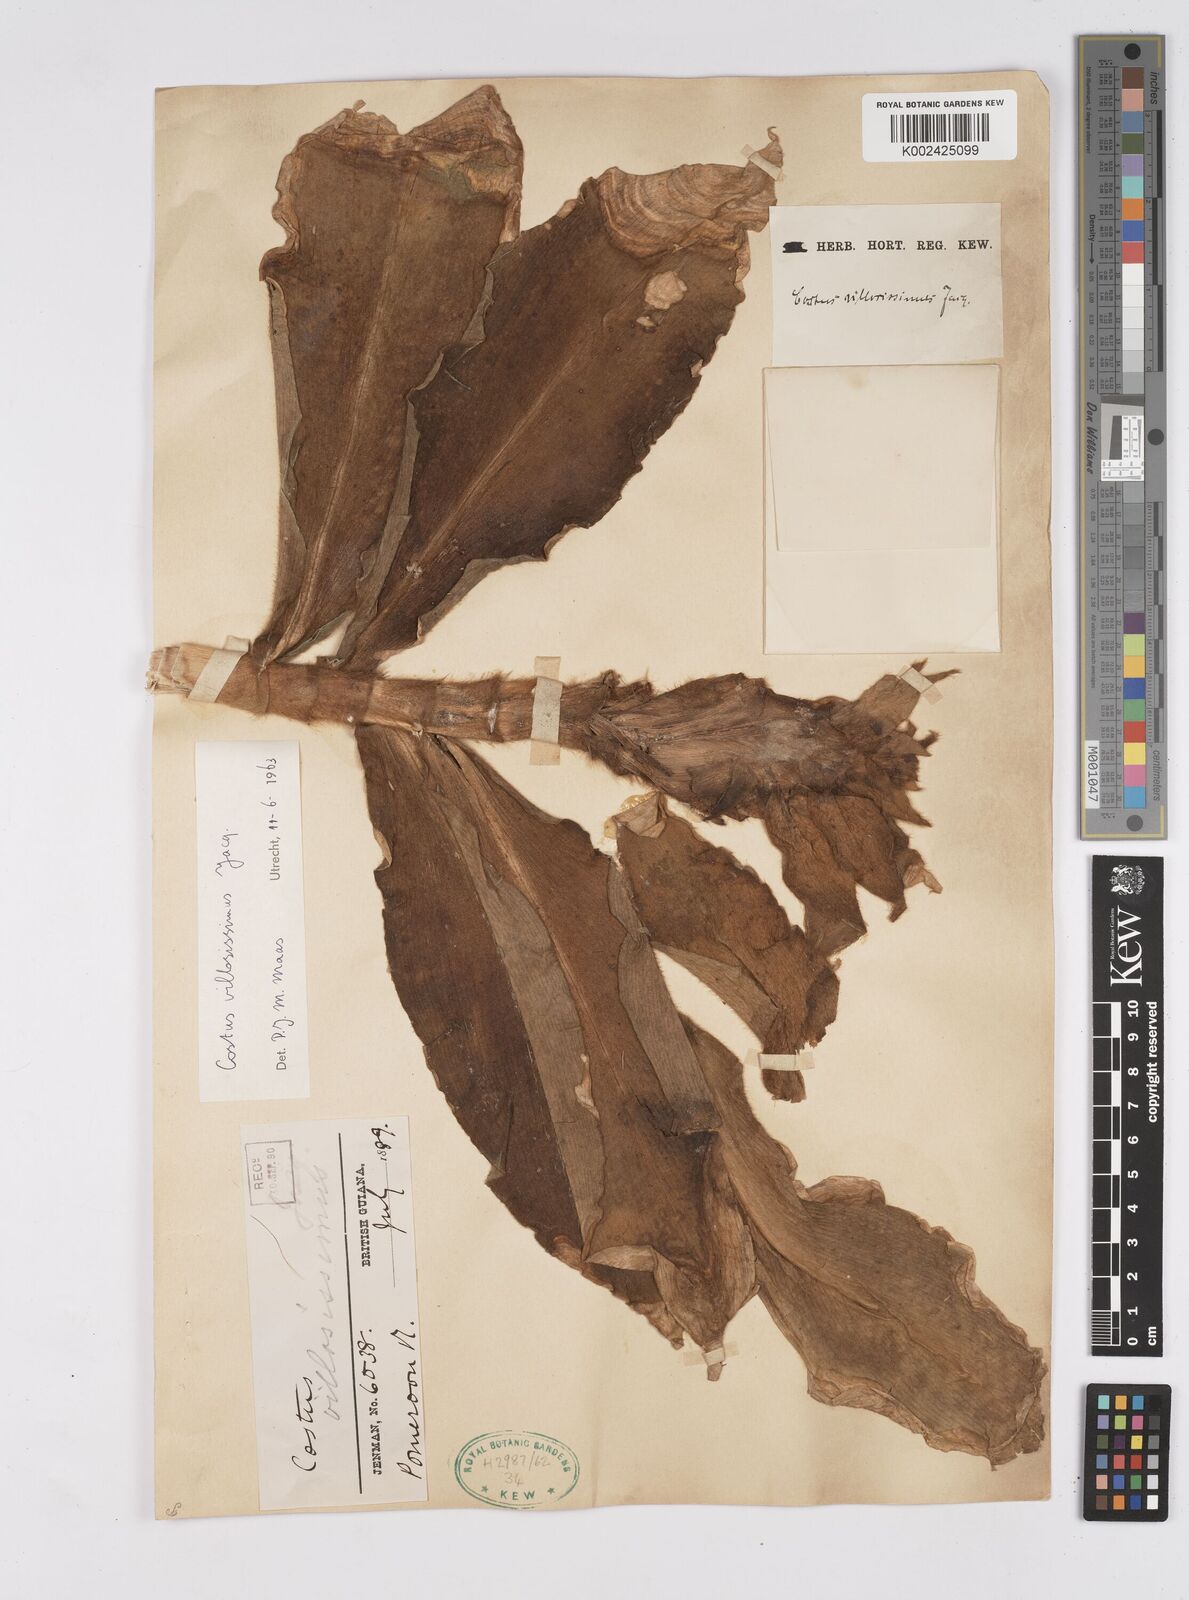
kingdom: Plantae
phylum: Tracheophyta
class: Liliopsida
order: Zingiberales
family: Costaceae
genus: Costus
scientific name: Costus villosissimus
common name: Spiral flag
